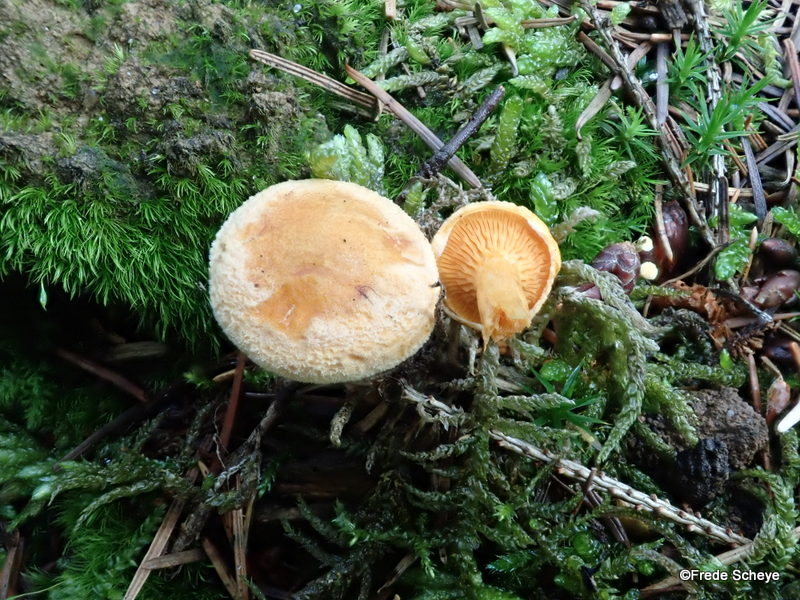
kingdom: Fungi
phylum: Basidiomycota
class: Agaricomycetes
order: Boletales
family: Hygrophoropsidaceae
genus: Hygrophoropsis
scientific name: Hygrophoropsis aurantiaca
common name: almindelig orangekantarel
